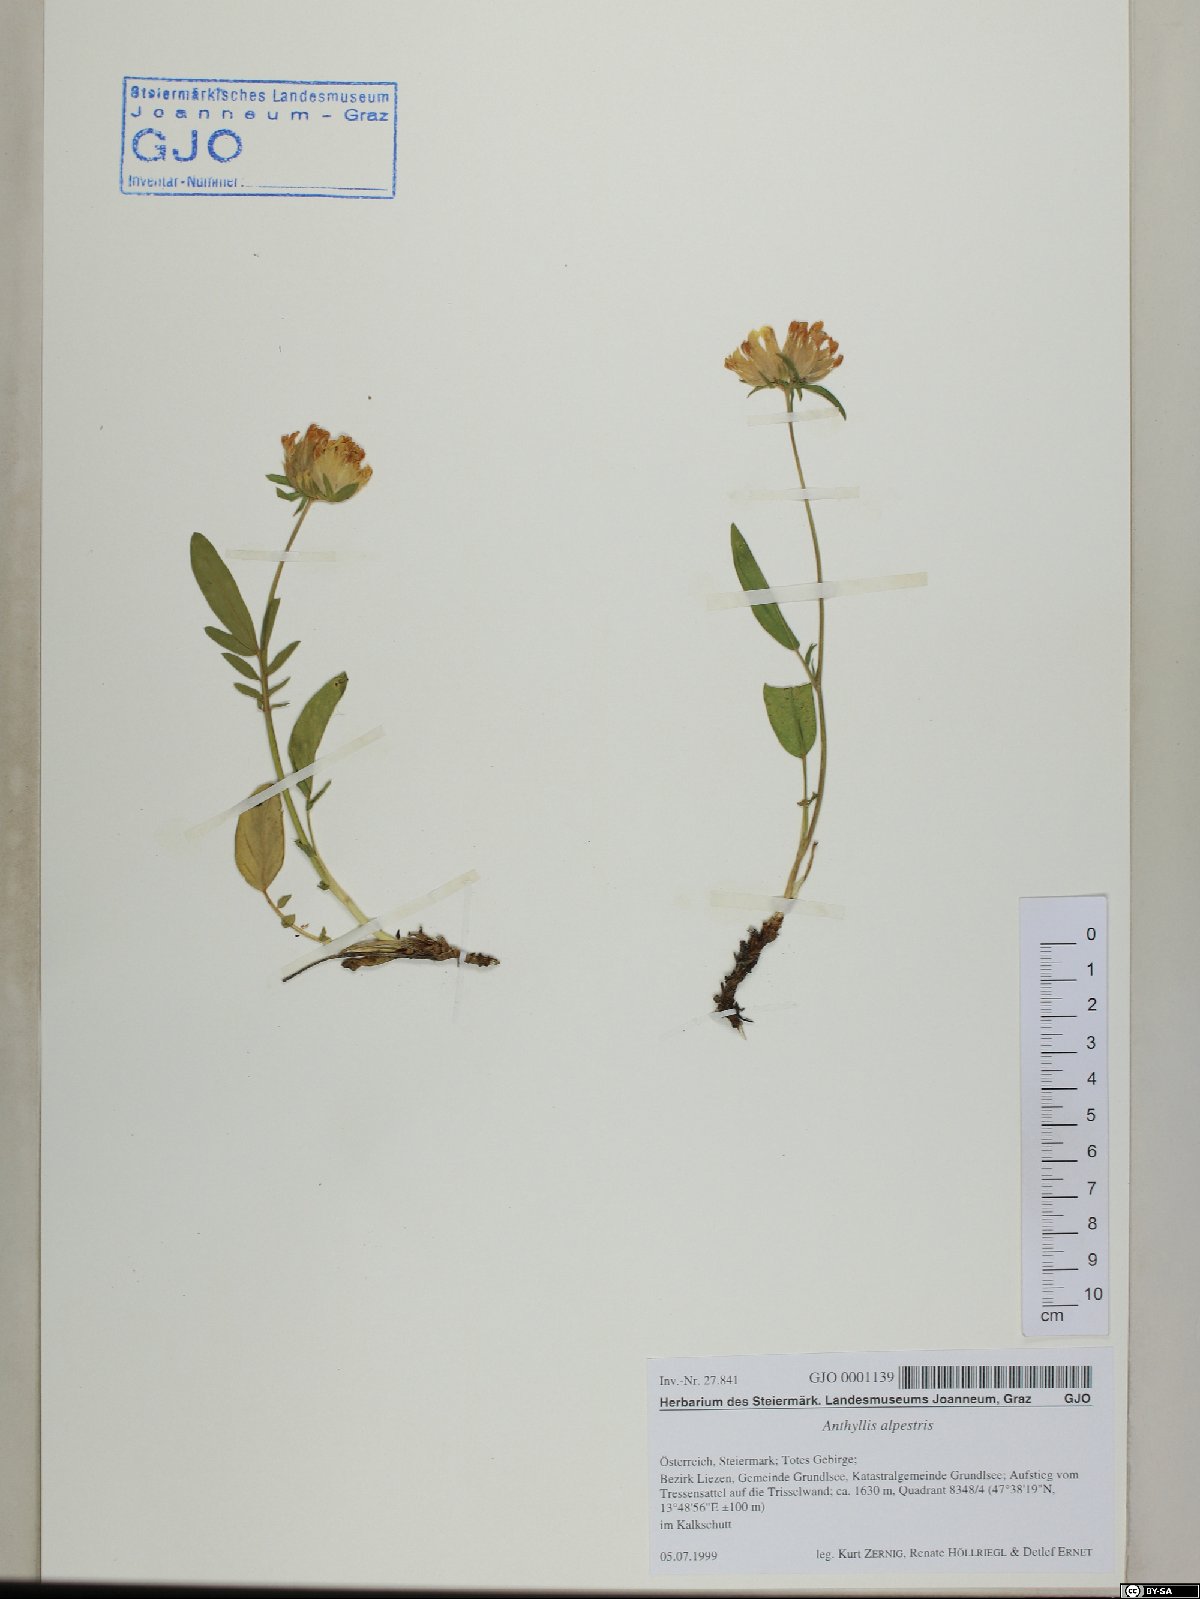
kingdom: Plantae
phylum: Tracheophyta
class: Magnoliopsida
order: Fabales
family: Fabaceae
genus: Anthyllis
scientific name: Anthyllis vulneraria
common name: Kidney vetch
